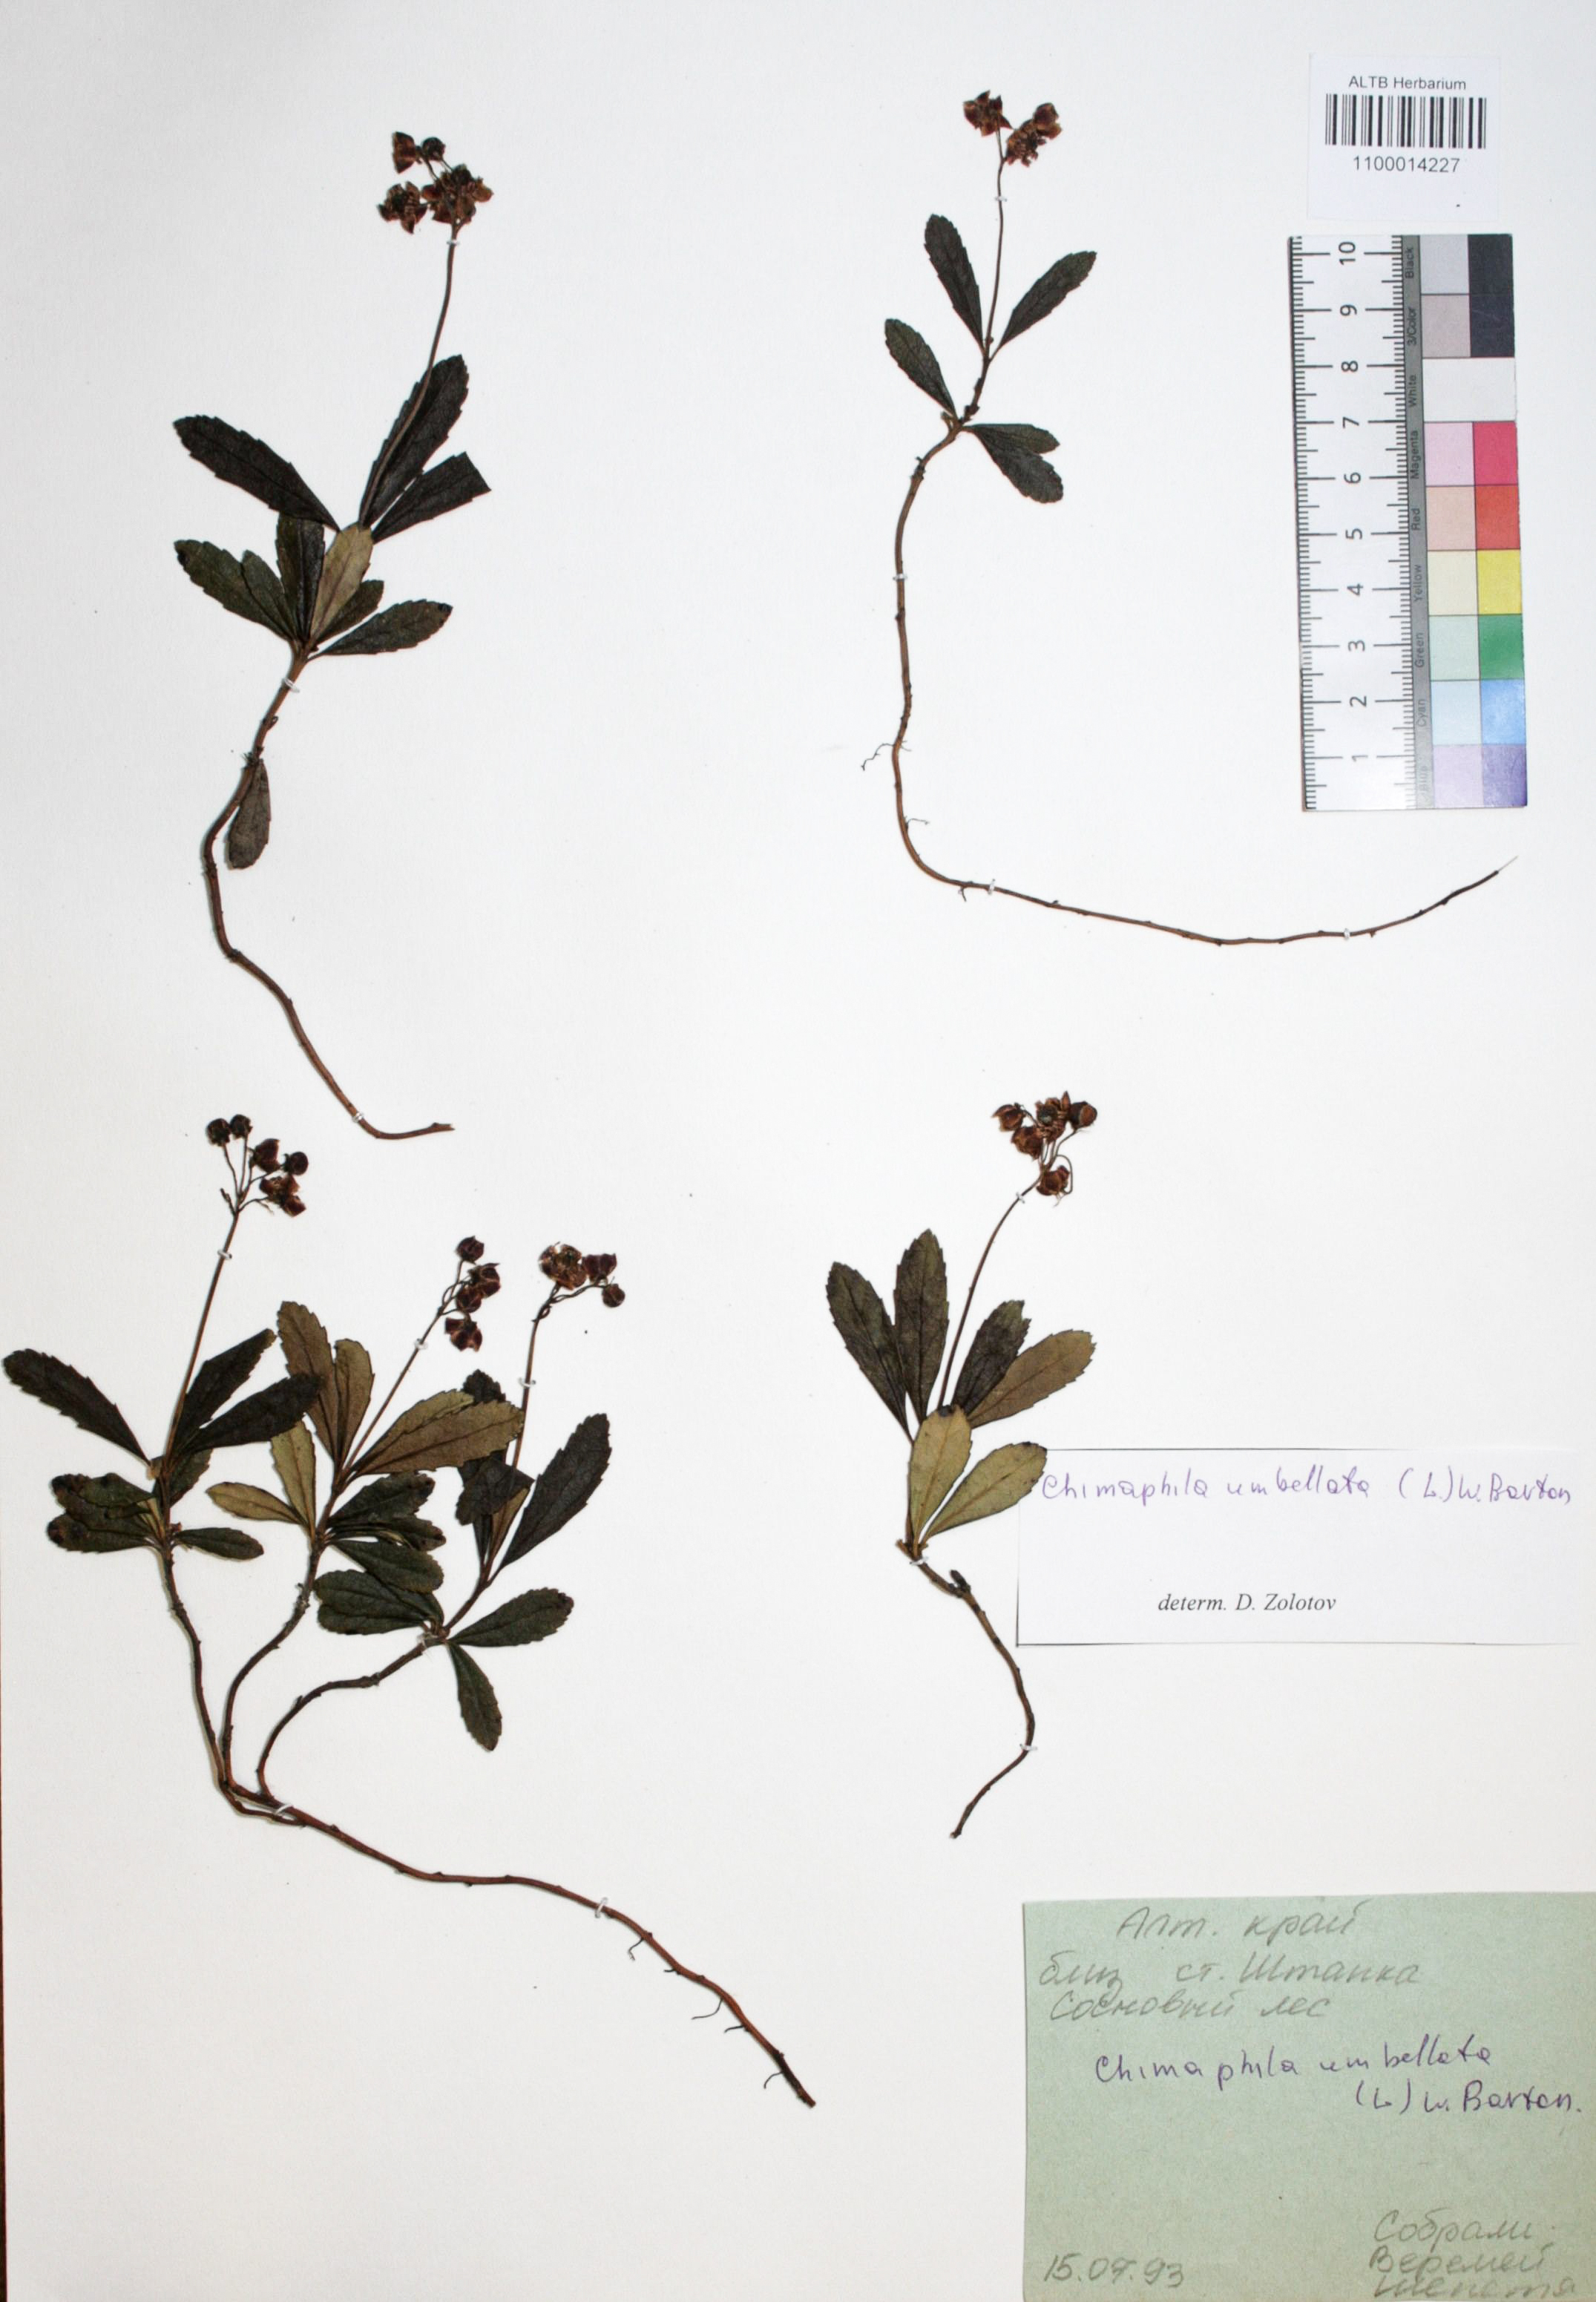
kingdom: Plantae
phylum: Tracheophyta
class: Magnoliopsida
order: Ericales
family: Ericaceae
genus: Chimaphila
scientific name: Chimaphila umbellata
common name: Pipsissewa
